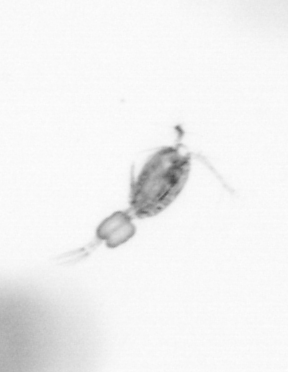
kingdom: Animalia
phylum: Arthropoda
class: Copepoda
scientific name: Copepoda
